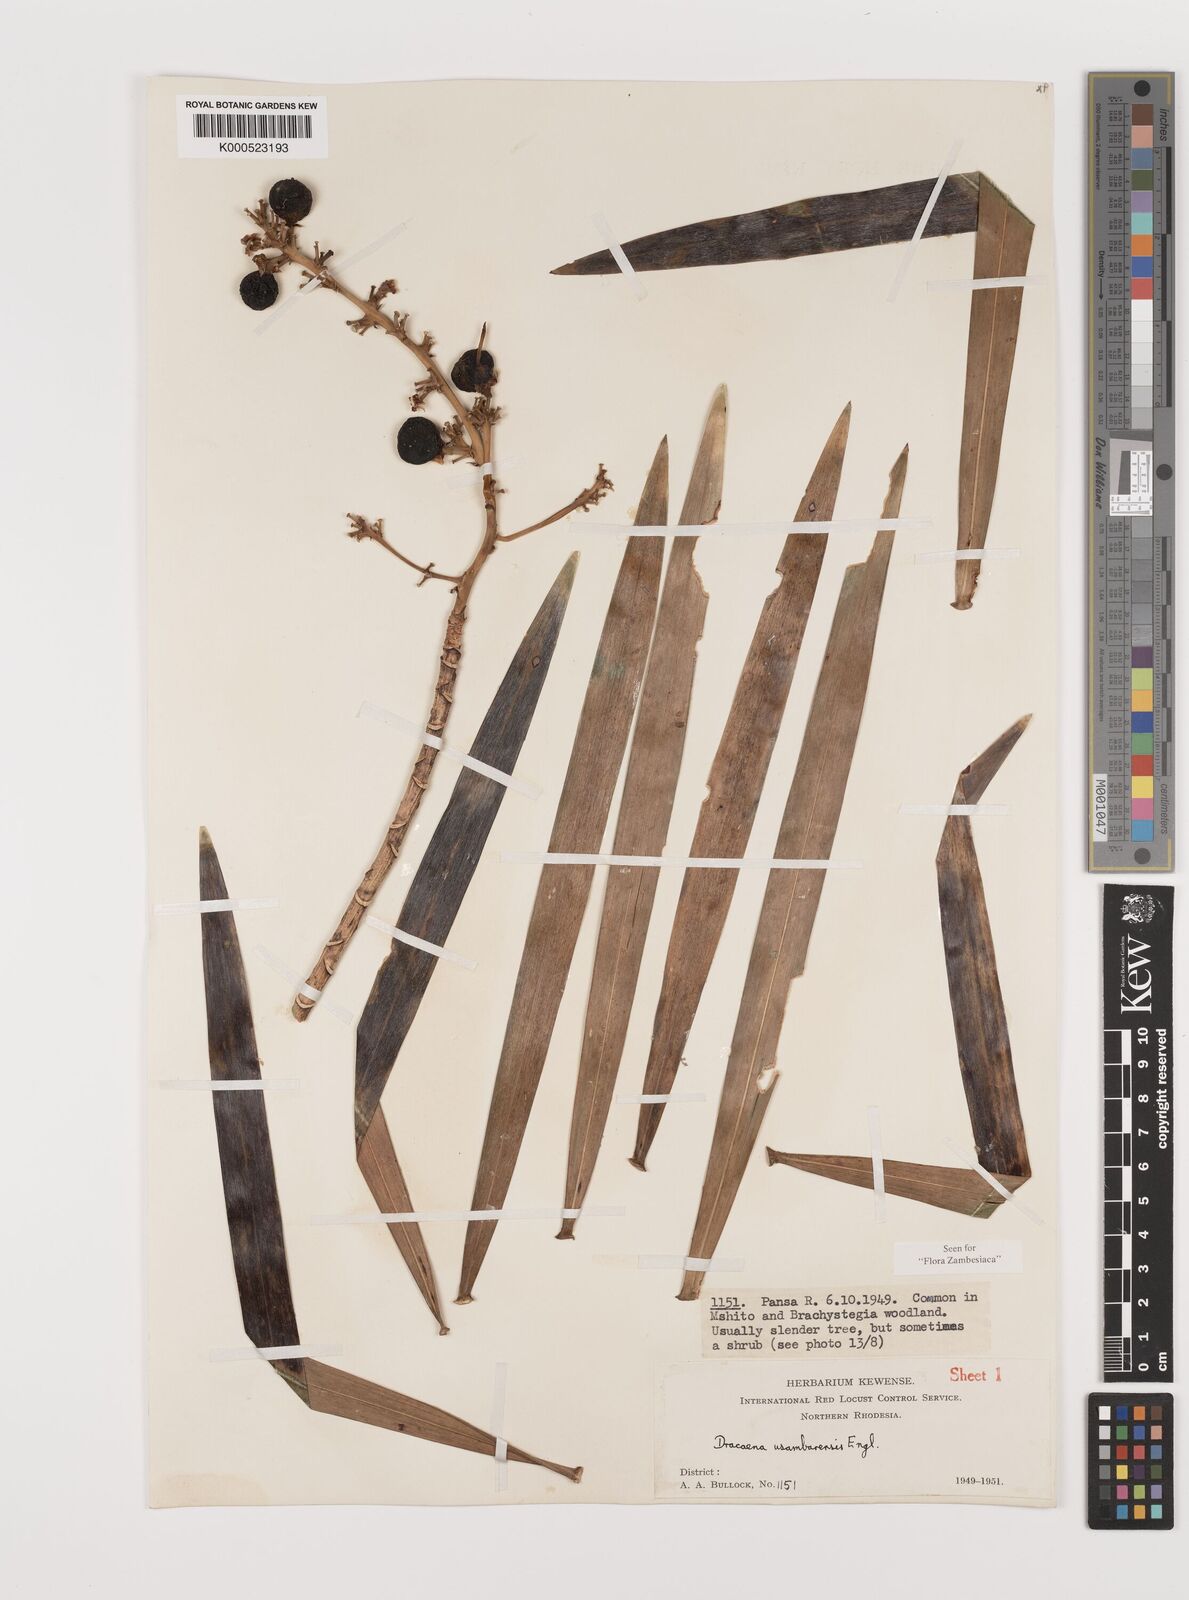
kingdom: Plantae
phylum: Tracheophyta
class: Liliopsida
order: Asparagales
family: Asparagaceae
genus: Dracaena
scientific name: Dracaena usambarensis
